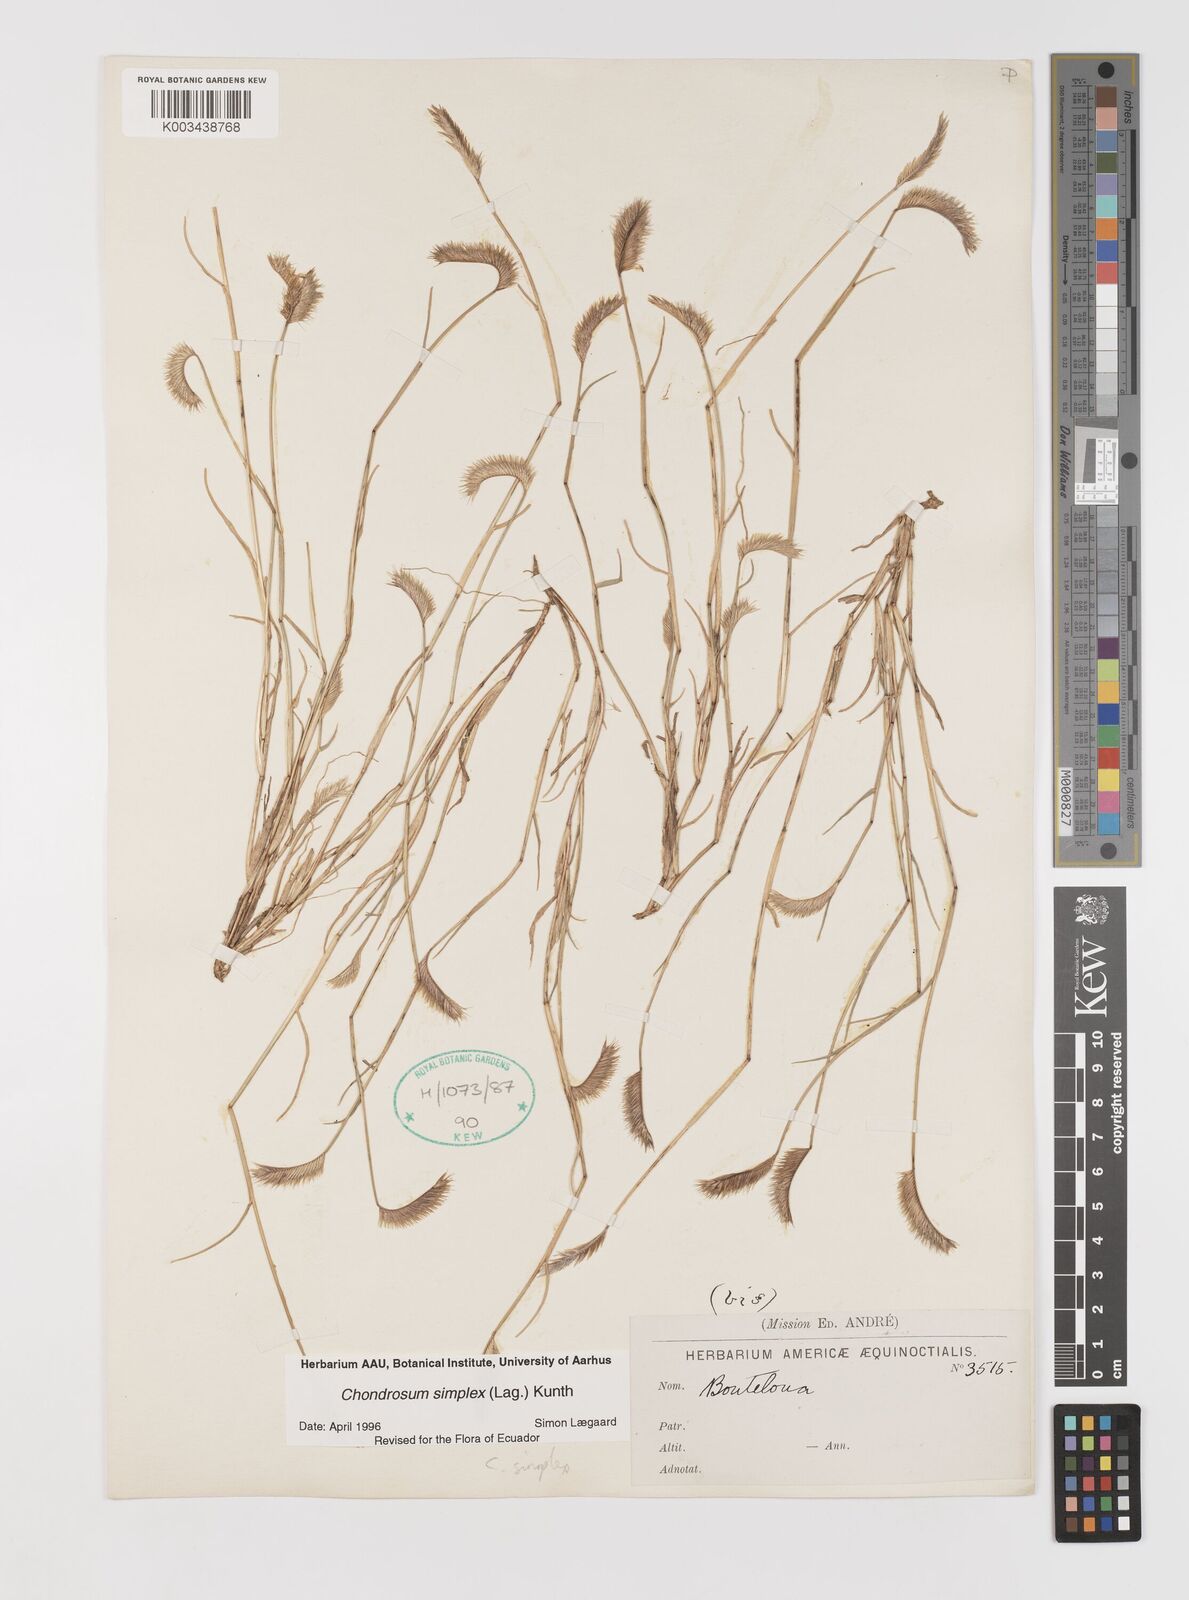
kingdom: Plantae
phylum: Tracheophyta
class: Liliopsida
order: Poales
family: Poaceae
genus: Bouteloua
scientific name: Bouteloua simplex
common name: Mat grama
